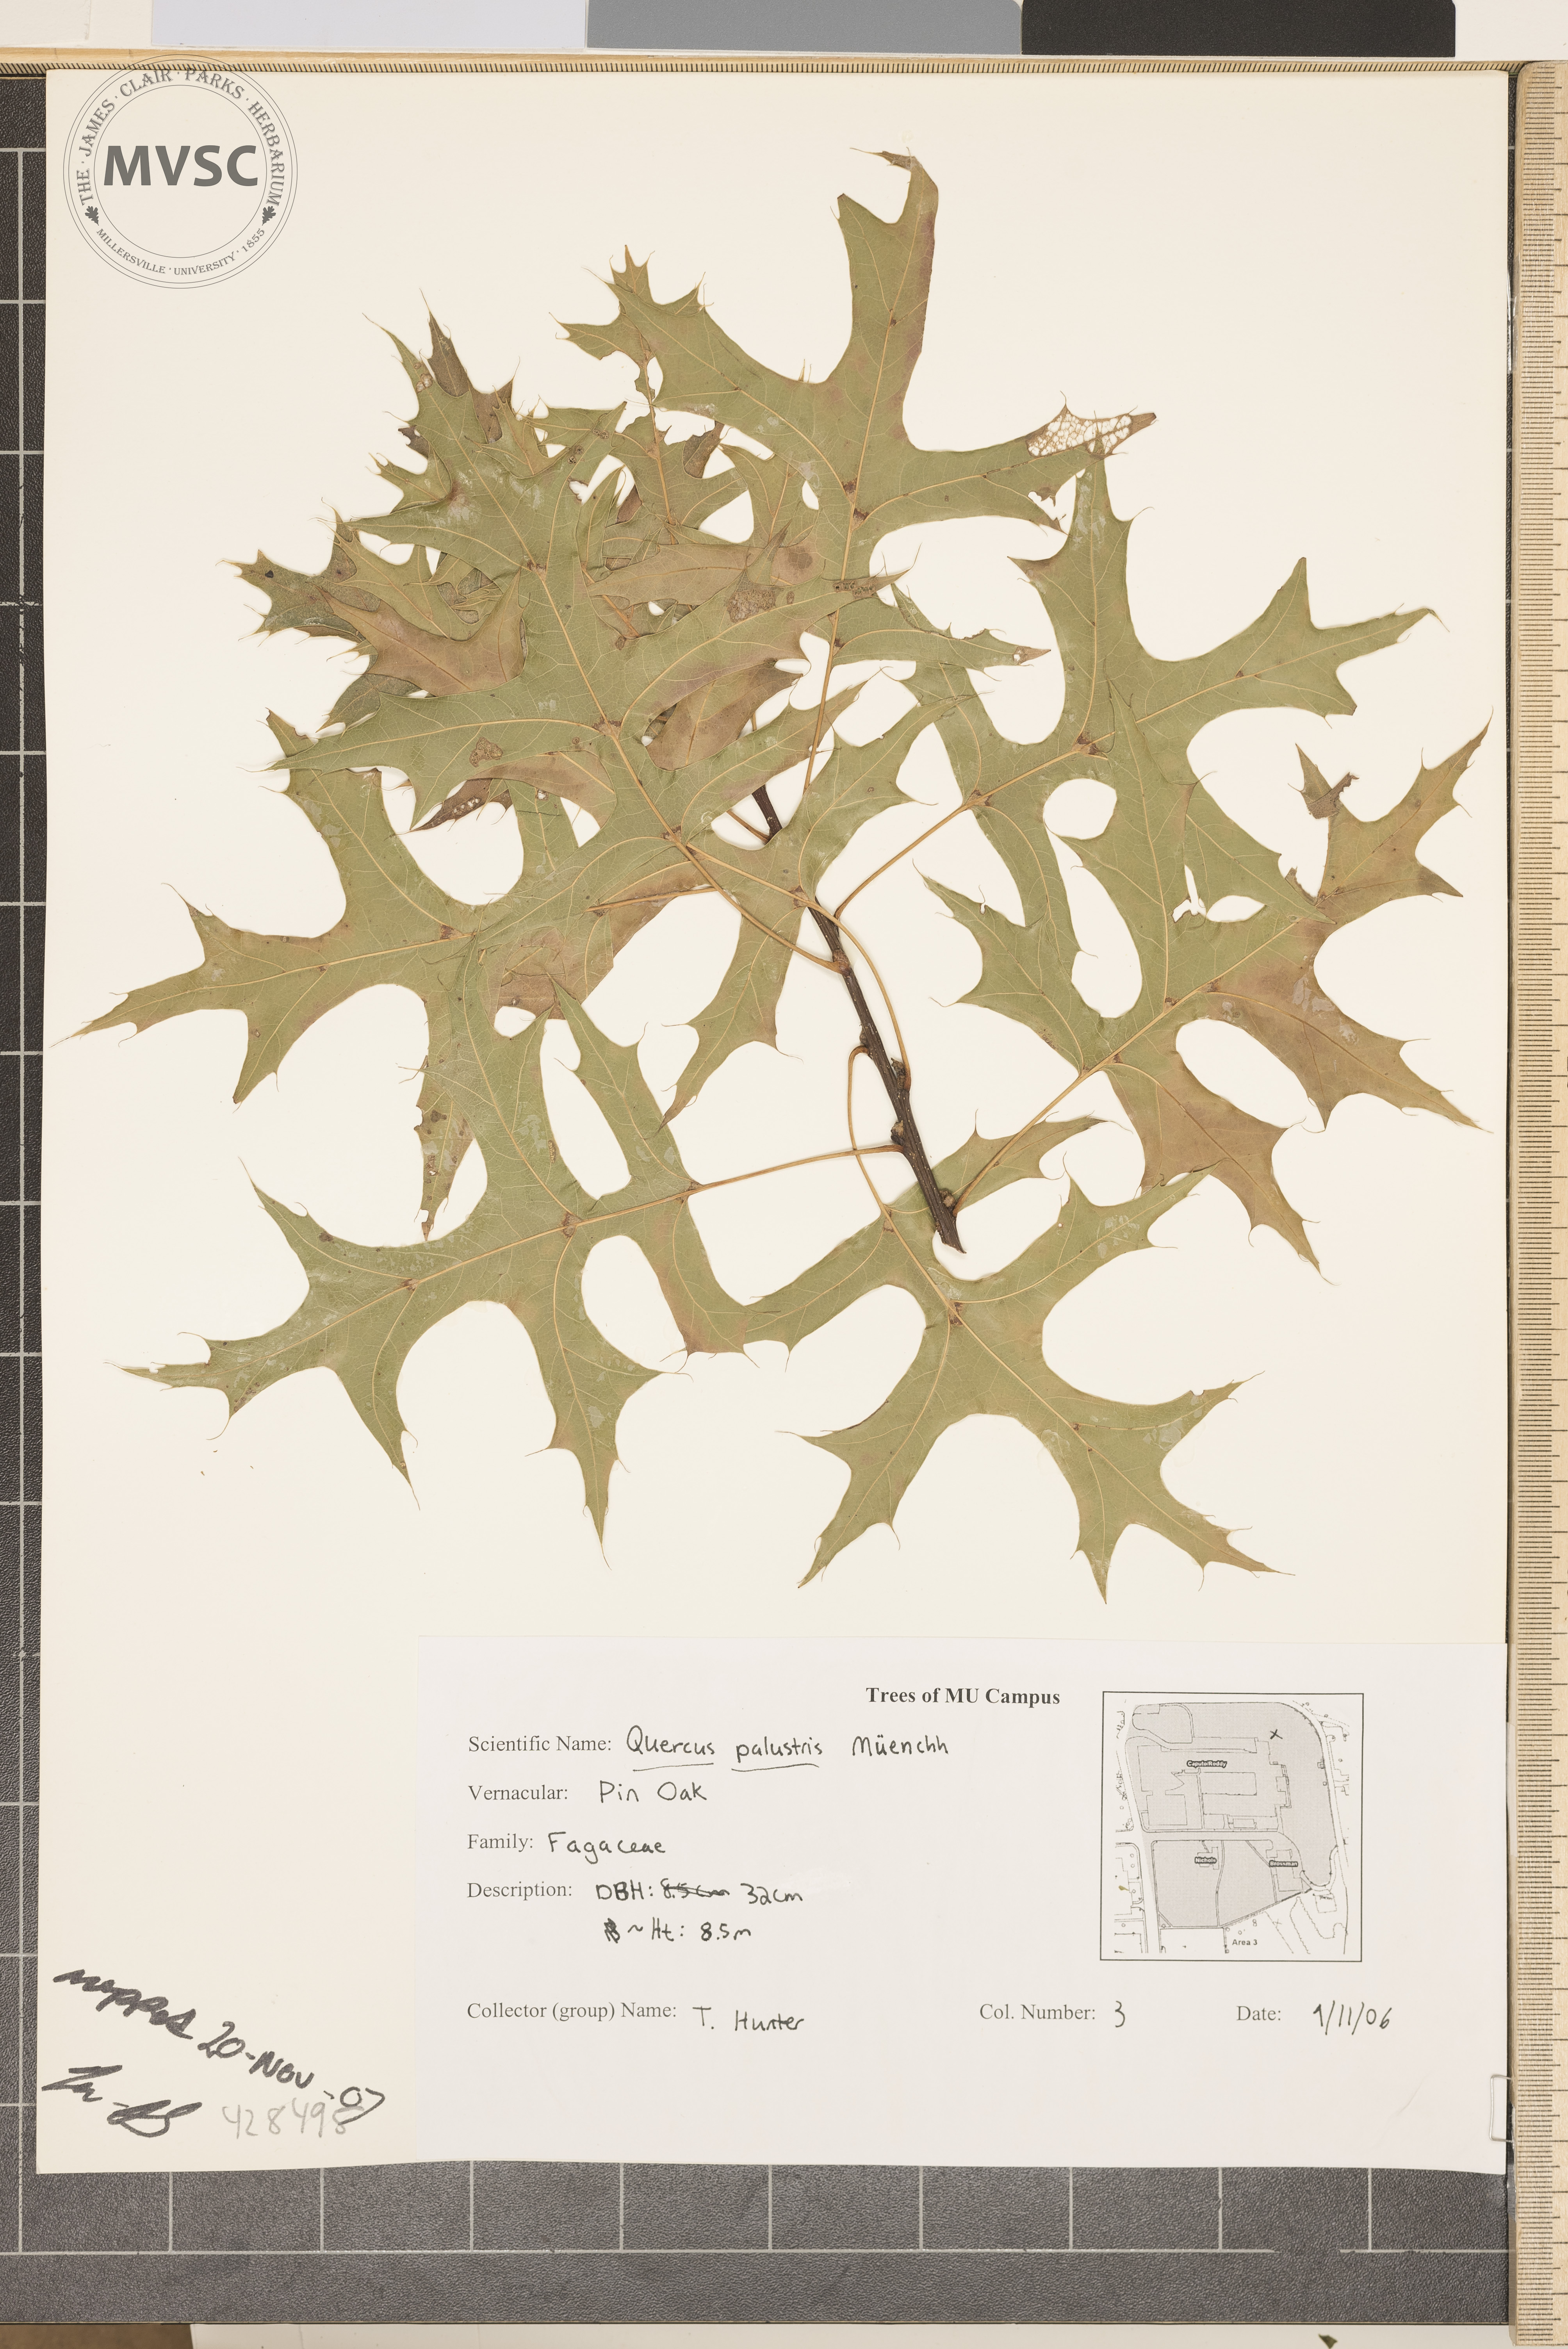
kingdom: Plantae
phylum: Tracheophyta
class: Magnoliopsida
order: Fagales
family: Fagaceae
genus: Quercus
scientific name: Quercus palustris
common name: Pin Oak
